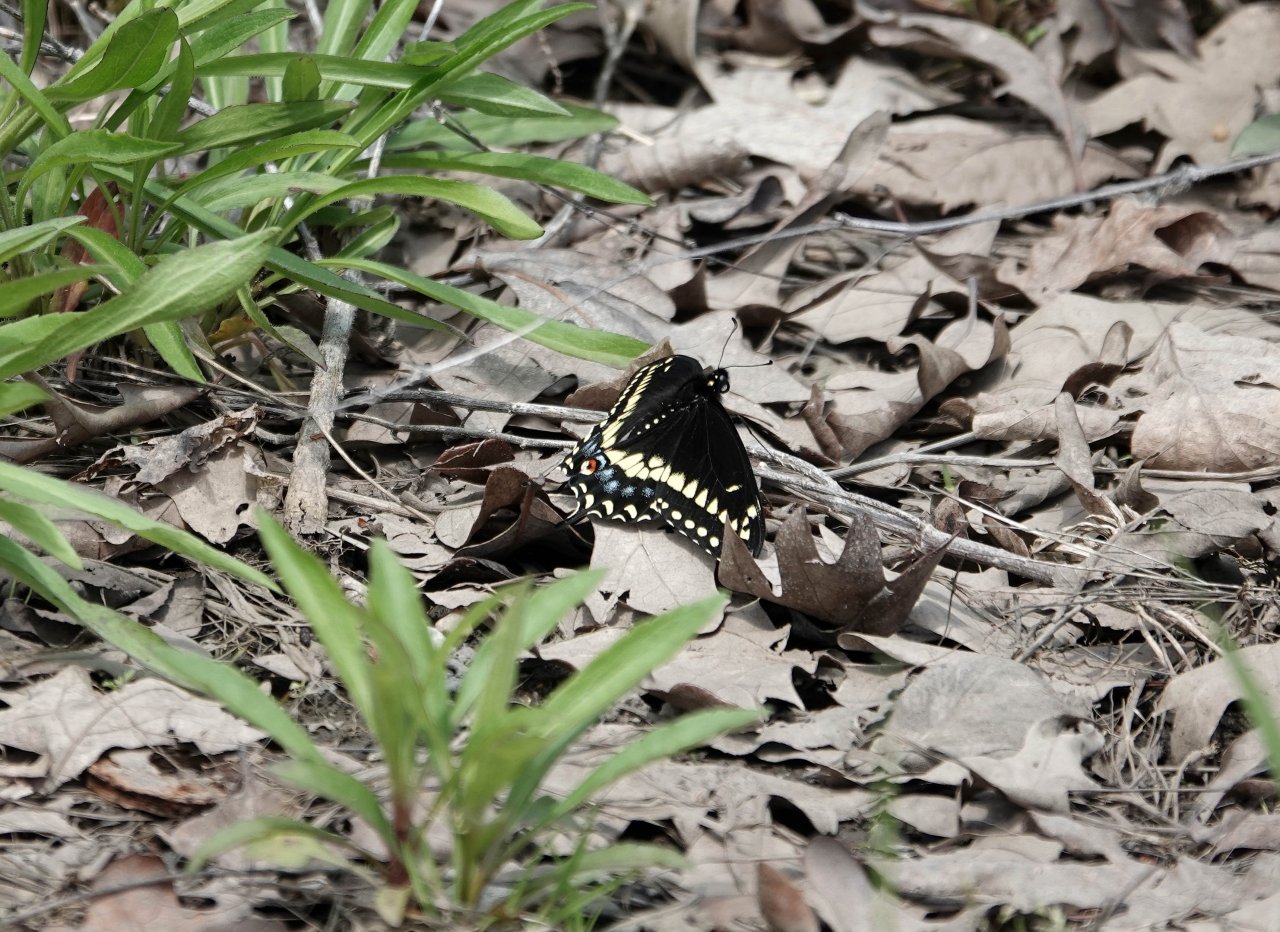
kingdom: Animalia
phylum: Arthropoda
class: Insecta
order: Lepidoptera
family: Papilionidae
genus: Papilio
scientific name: Papilio polyxenes
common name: Black Swallowtail
